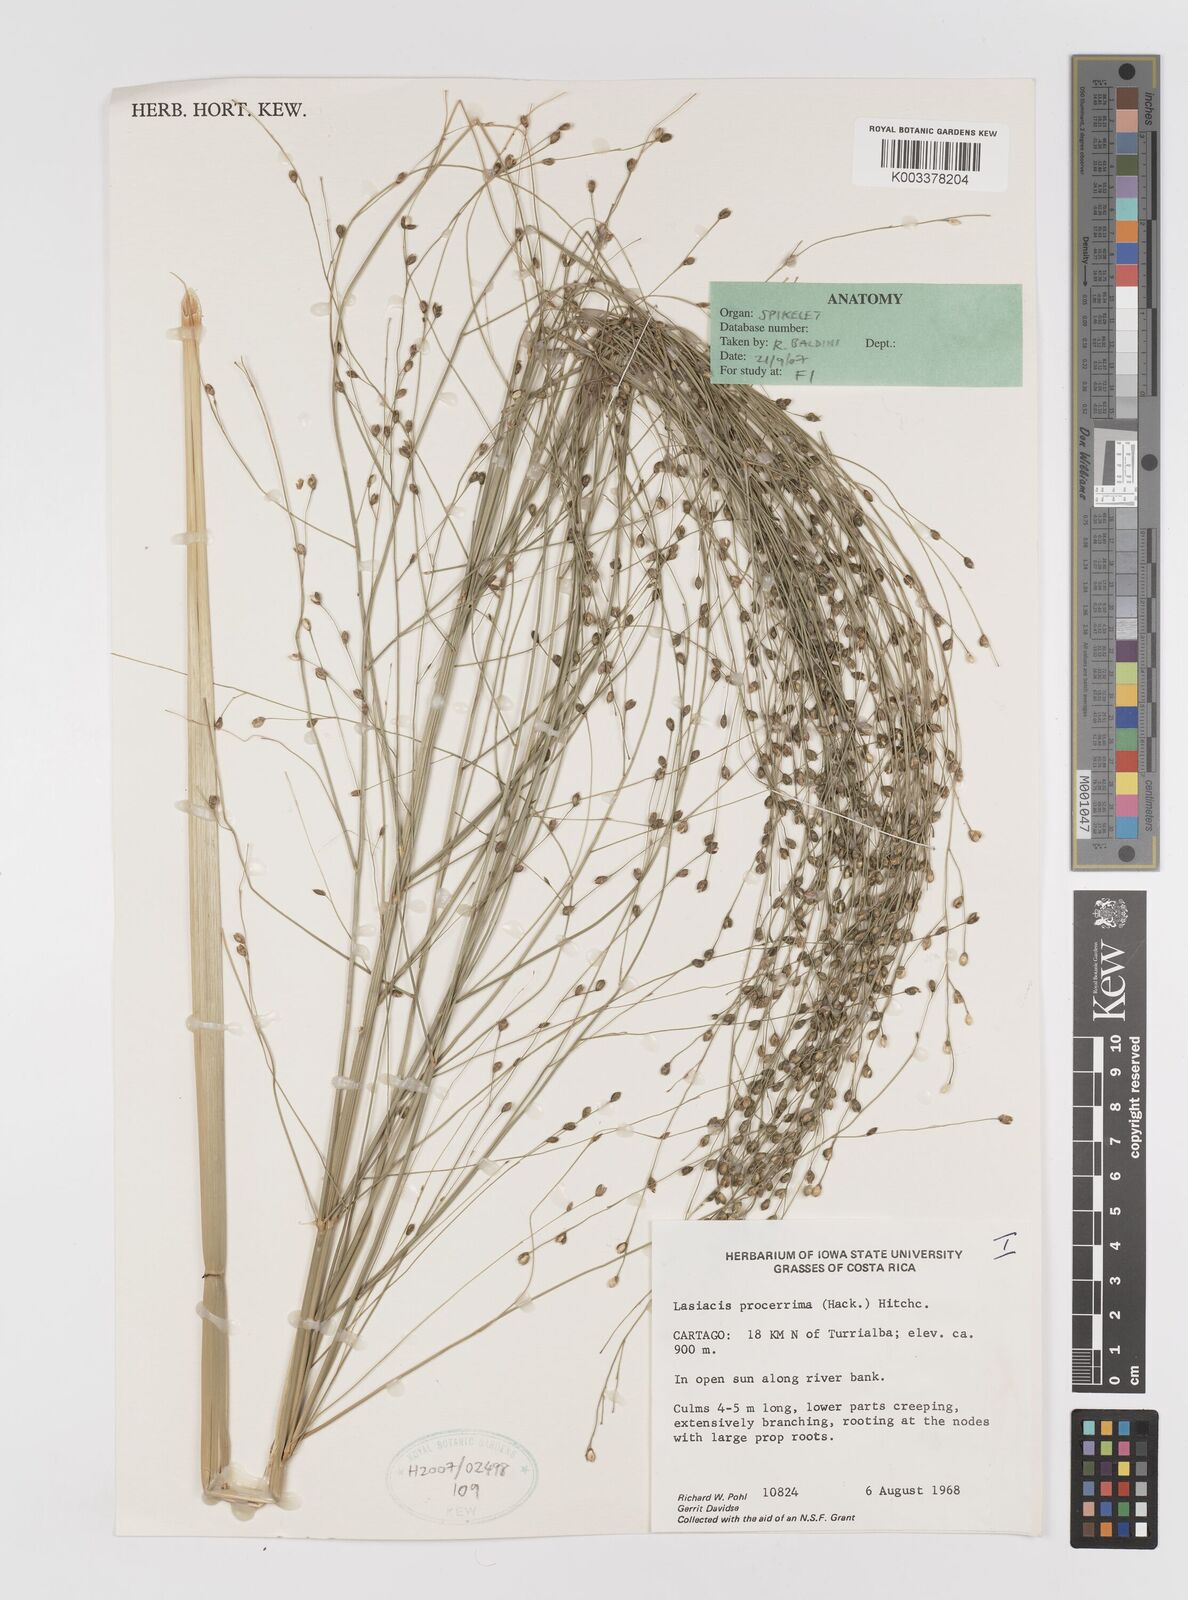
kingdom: Plantae
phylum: Tracheophyta
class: Liliopsida
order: Poales
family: Poaceae
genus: Lasiacis
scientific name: Lasiacis procerrima
